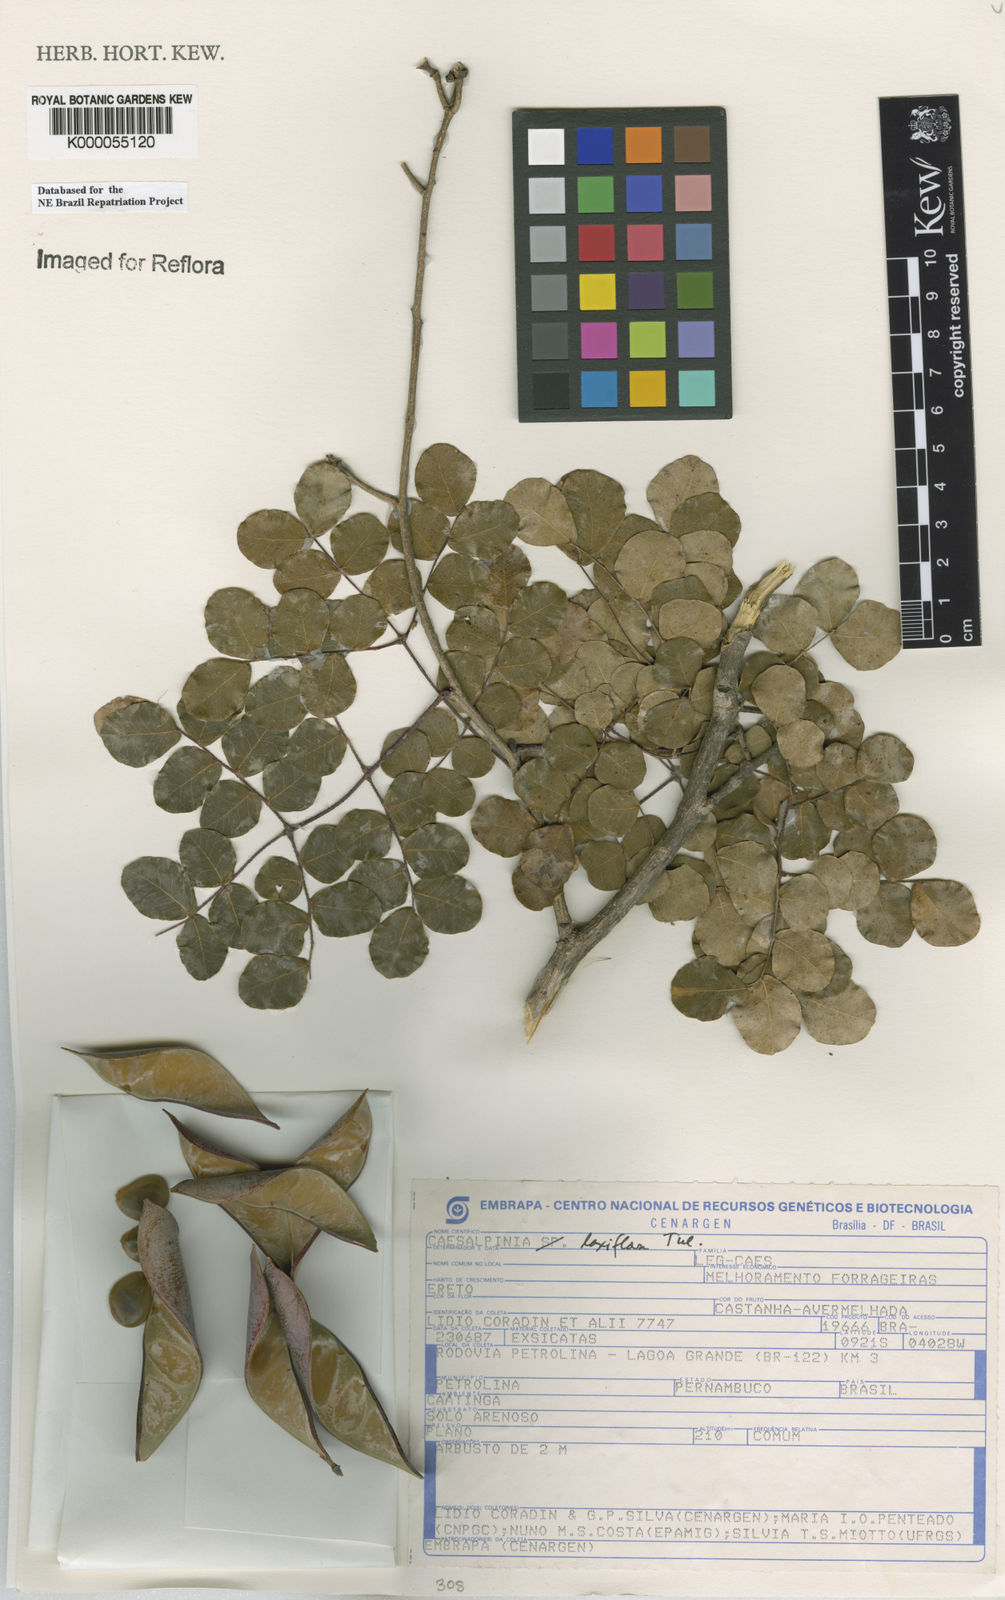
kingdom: Plantae
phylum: Tracheophyta
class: Magnoliopsida
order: Fabales
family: Fabaceae
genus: Cenostigma
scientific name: Cenostigma laxiflorum
